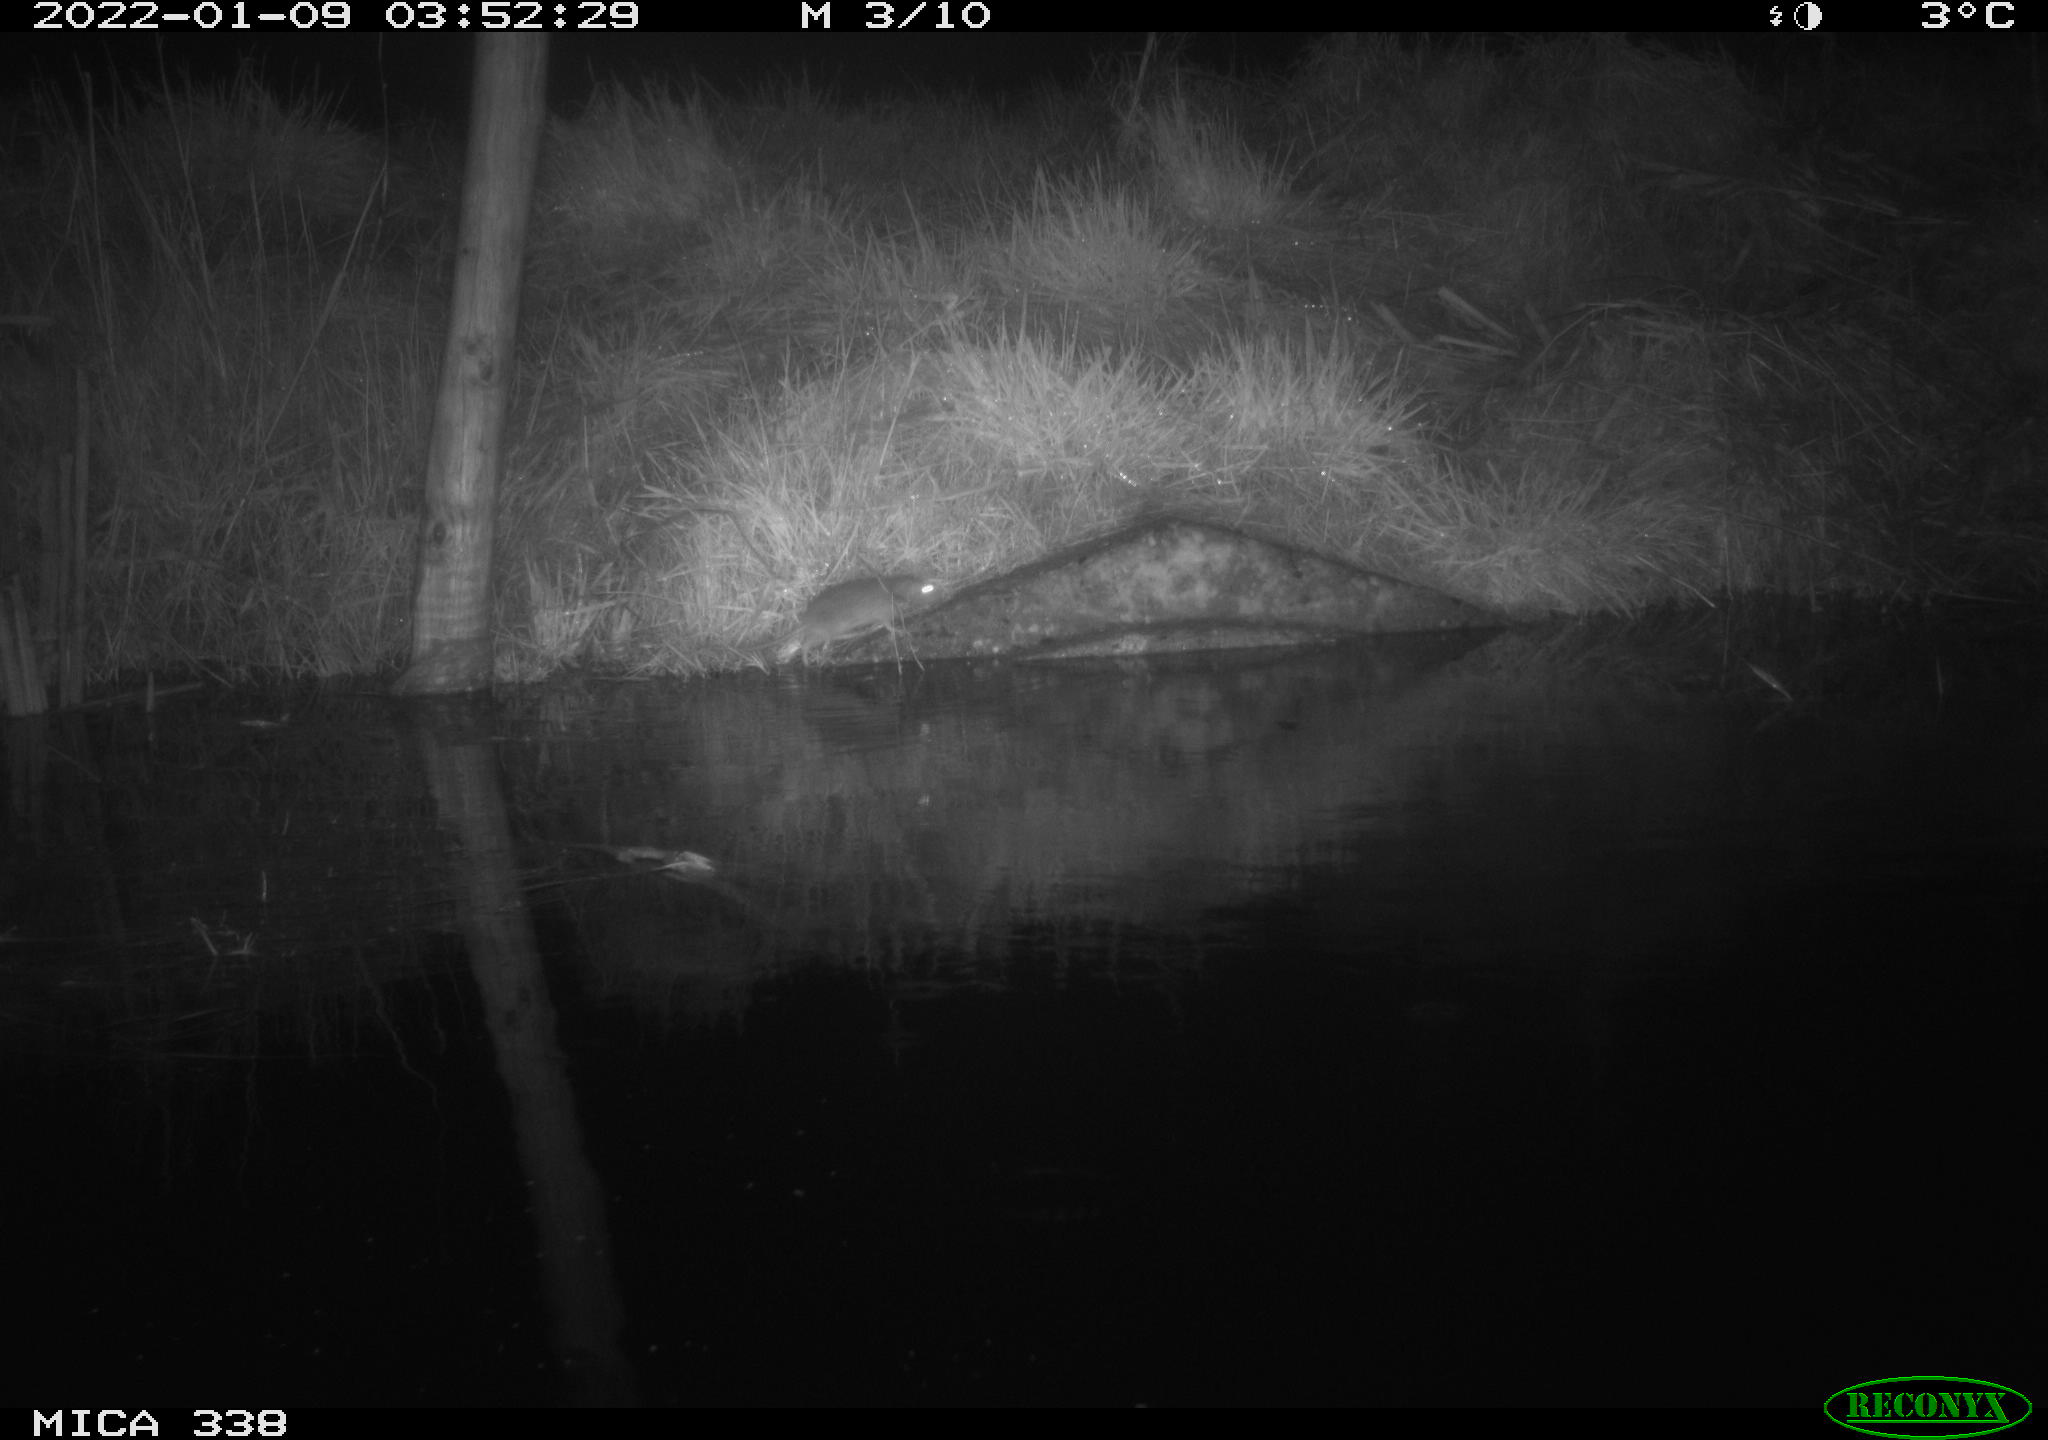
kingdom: Animalia
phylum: Chordata
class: Mammalia
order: Rodentia
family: Muridae
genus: Rattus
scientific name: Rattus norvegicus
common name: Brown rat
